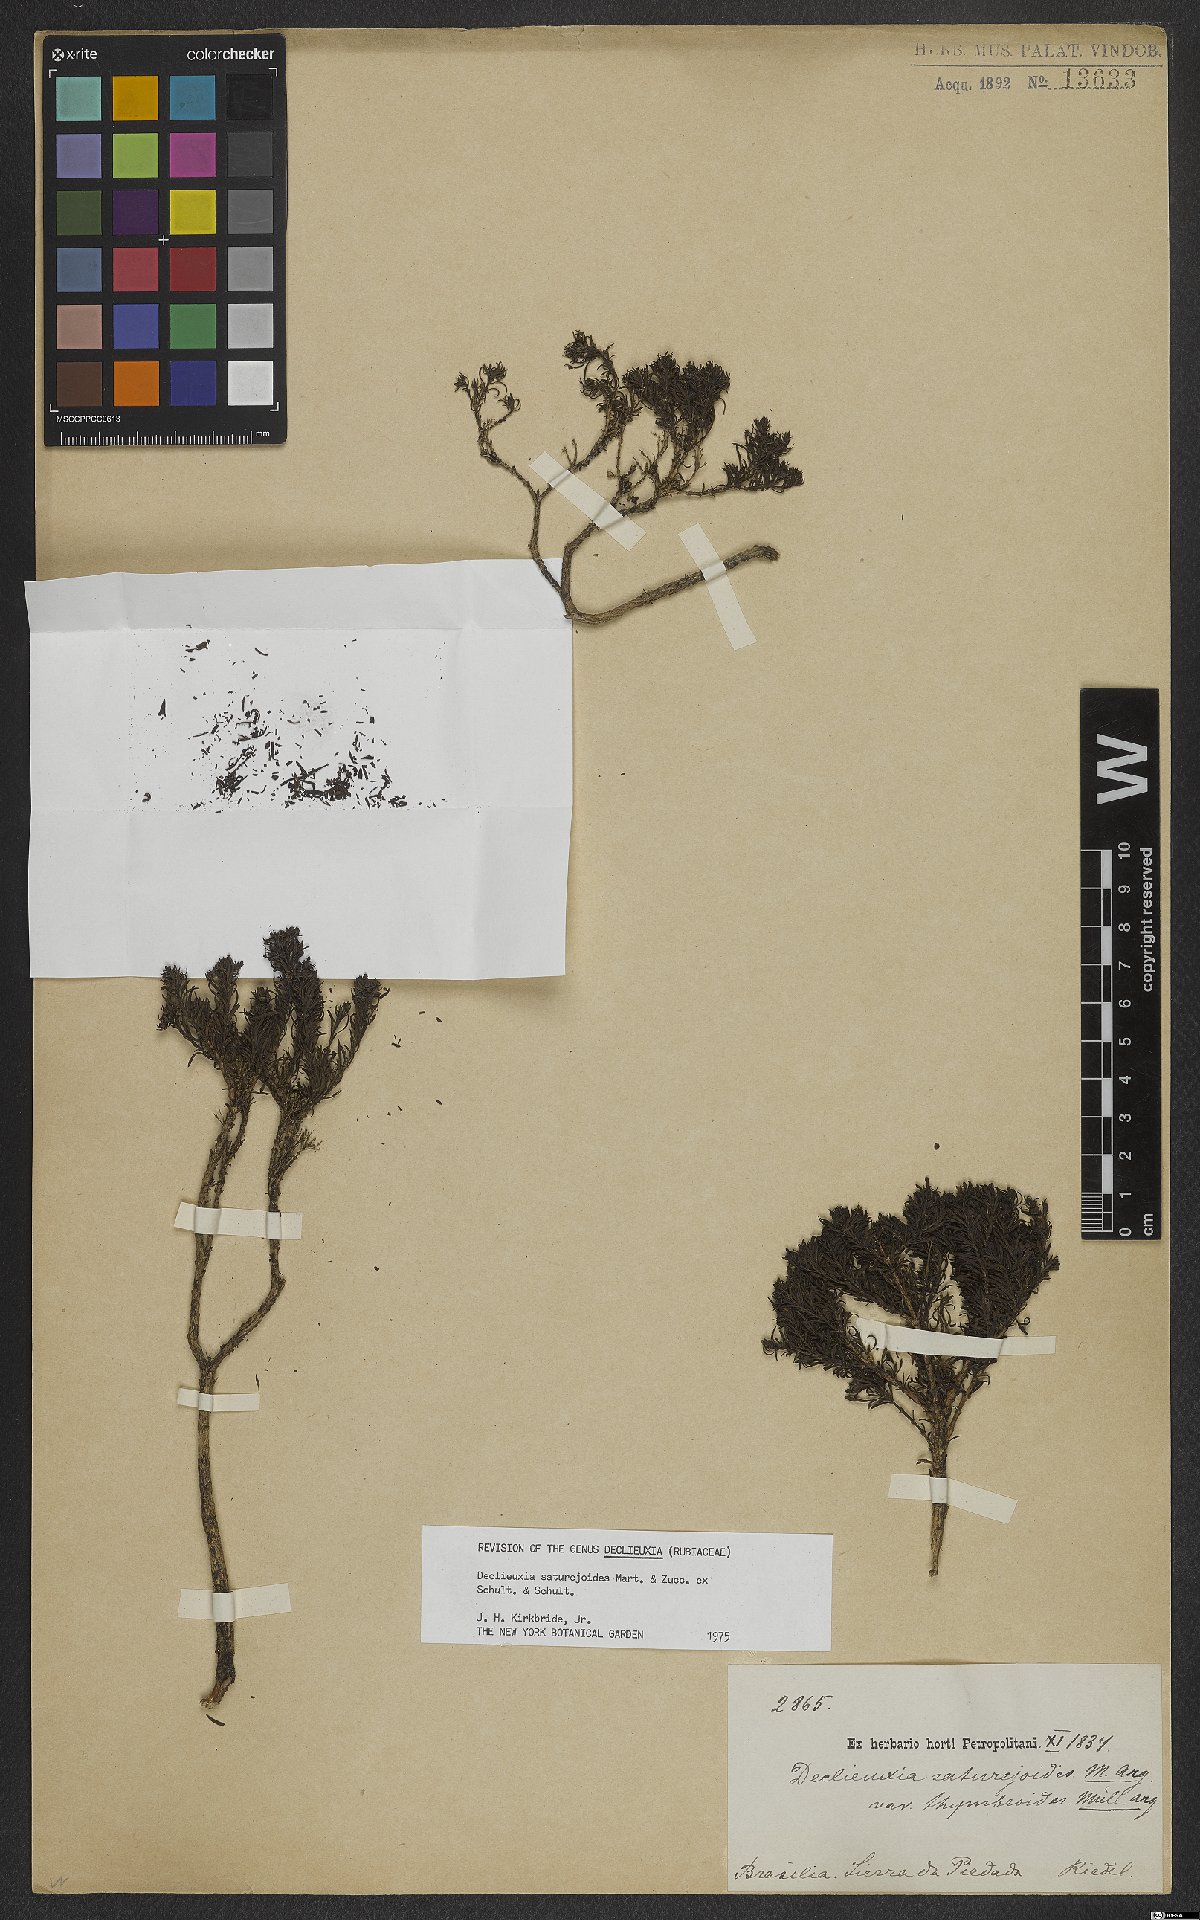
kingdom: Plantae
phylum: Tracheophyta
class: Magnoliopsida
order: Gentianales
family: Rubiaceae
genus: Declieuxia
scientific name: Declieuxia saturejoides
